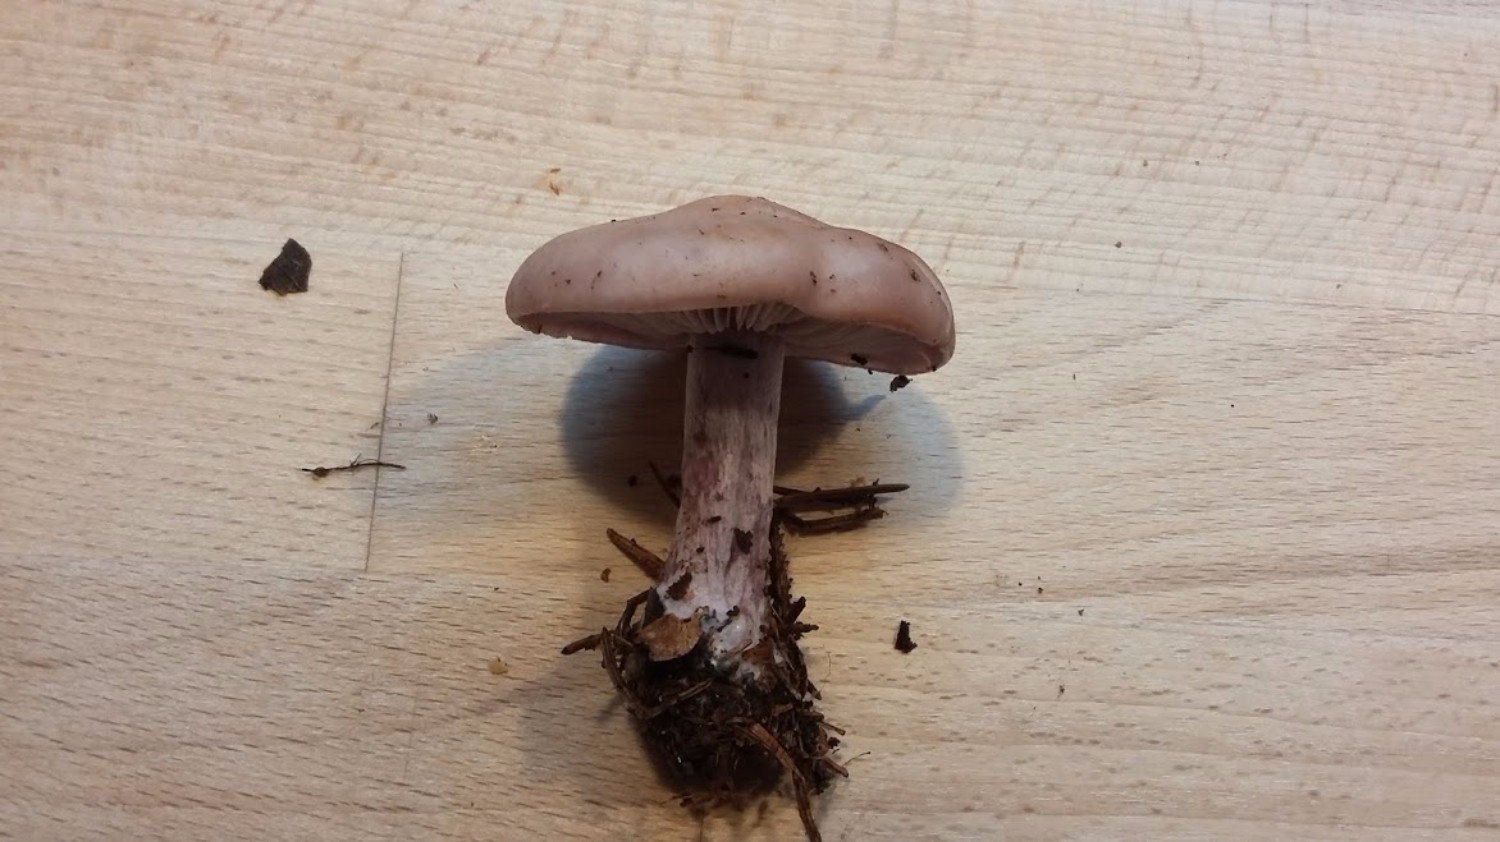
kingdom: Fungi
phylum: Basidiomycota
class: Agaricomycetes
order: Agaricales
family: Tricholomataceae
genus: Lepista
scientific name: Lepista nuda
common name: violet hekseringshat
